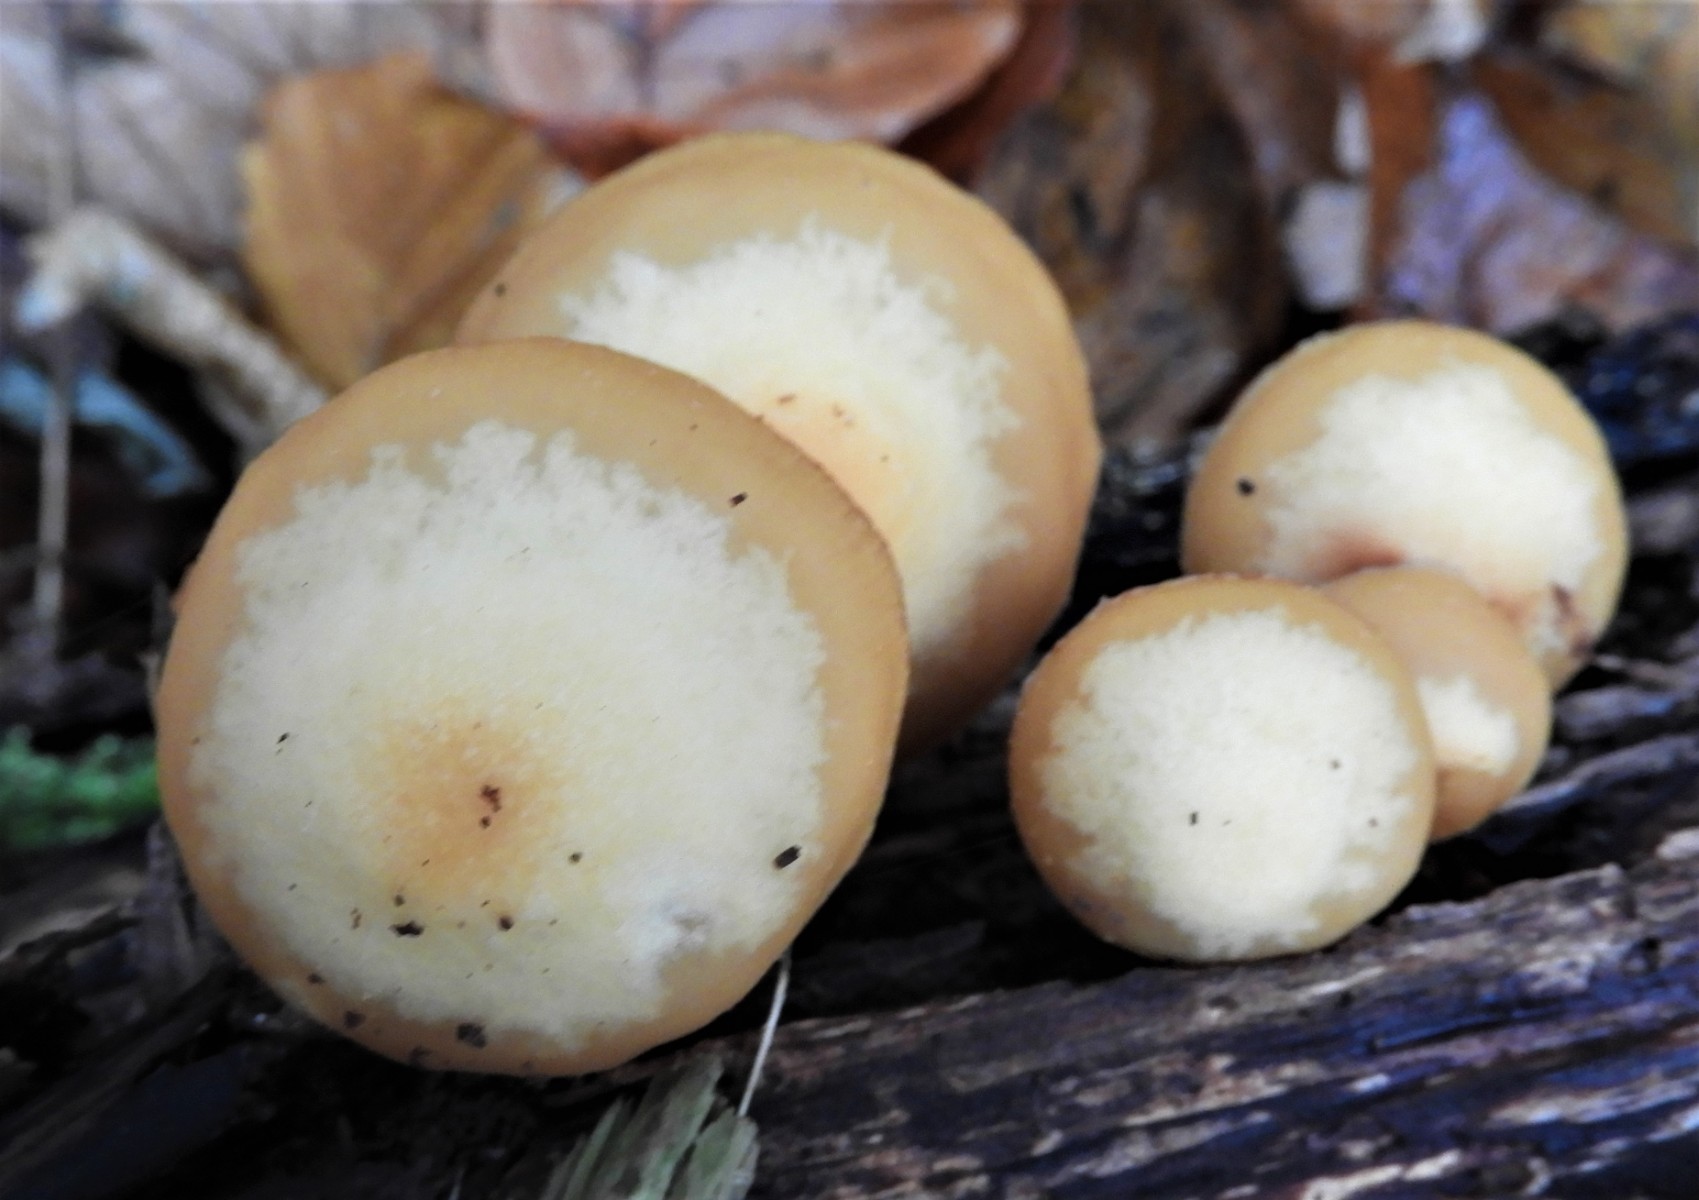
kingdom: Fungi
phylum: Basidiomycota
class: Agaricomycetes
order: Agaricales
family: Strophariaceae
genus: Kuehneromyces
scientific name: Kuehneromyces mutabilis
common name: foranderlig skælhat
